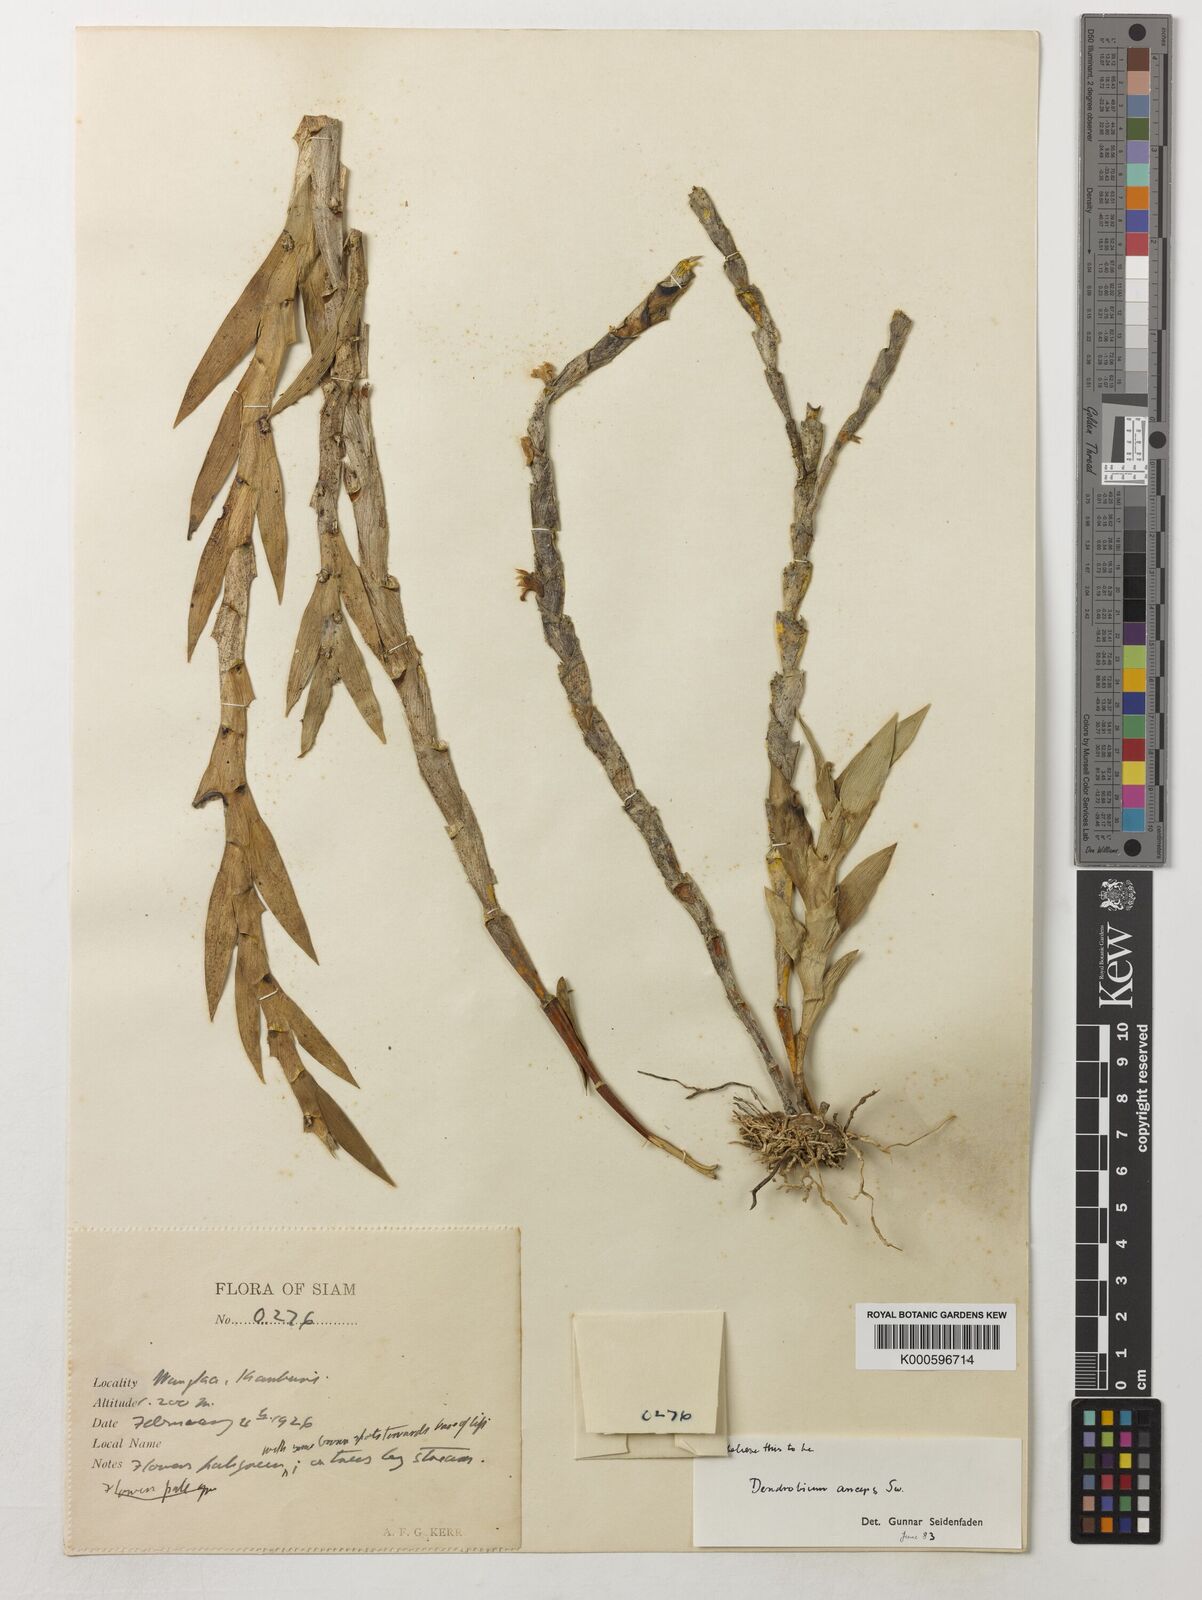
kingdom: Plantae
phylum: Tracheophyta
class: Liliopsida
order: Asparagales
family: Orchidaceae
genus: Dendrobium
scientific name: Dendrobium anceps
